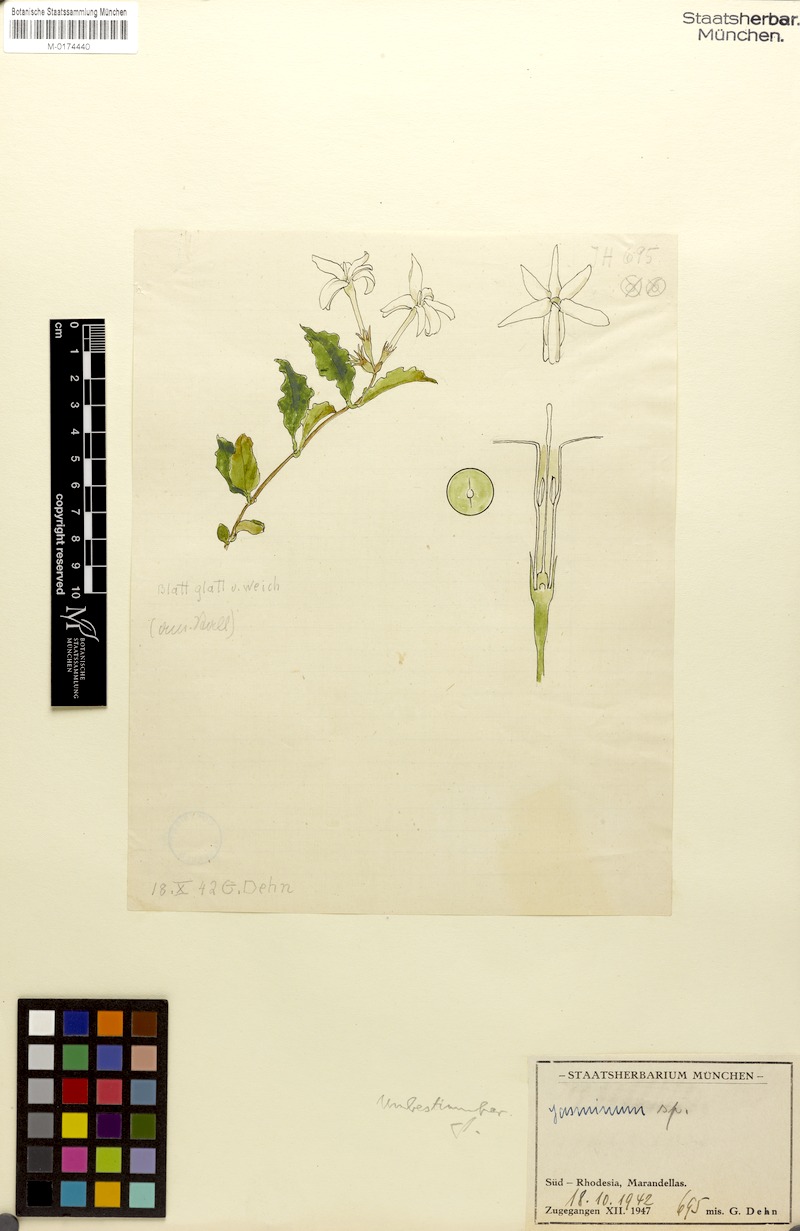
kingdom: Plantae
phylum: Tracheophyta
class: Magnoliopsida
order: Lamiales
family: Oleaceae
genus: Jasminum
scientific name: Jasminum
